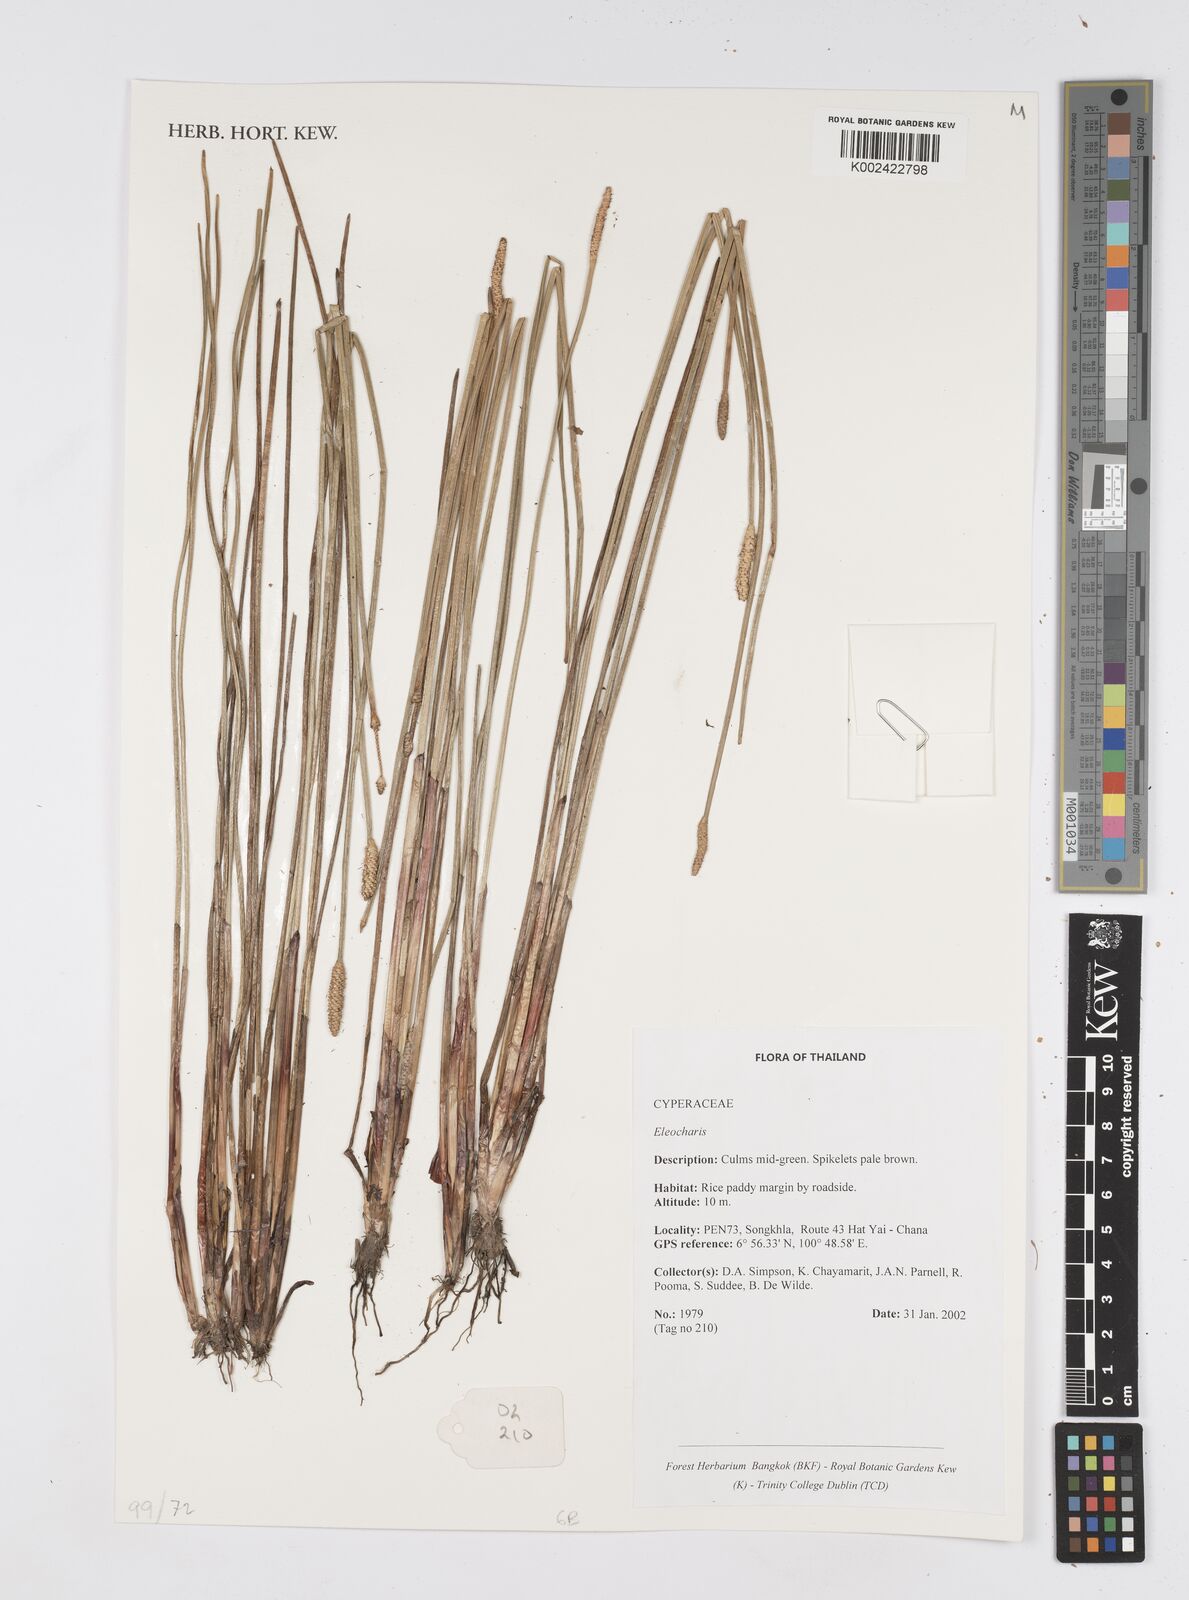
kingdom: Plantae
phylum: Tracheophyta
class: Liliopsida
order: Poales
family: Cyperaceae
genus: Eleocharis
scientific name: Eleocharis
